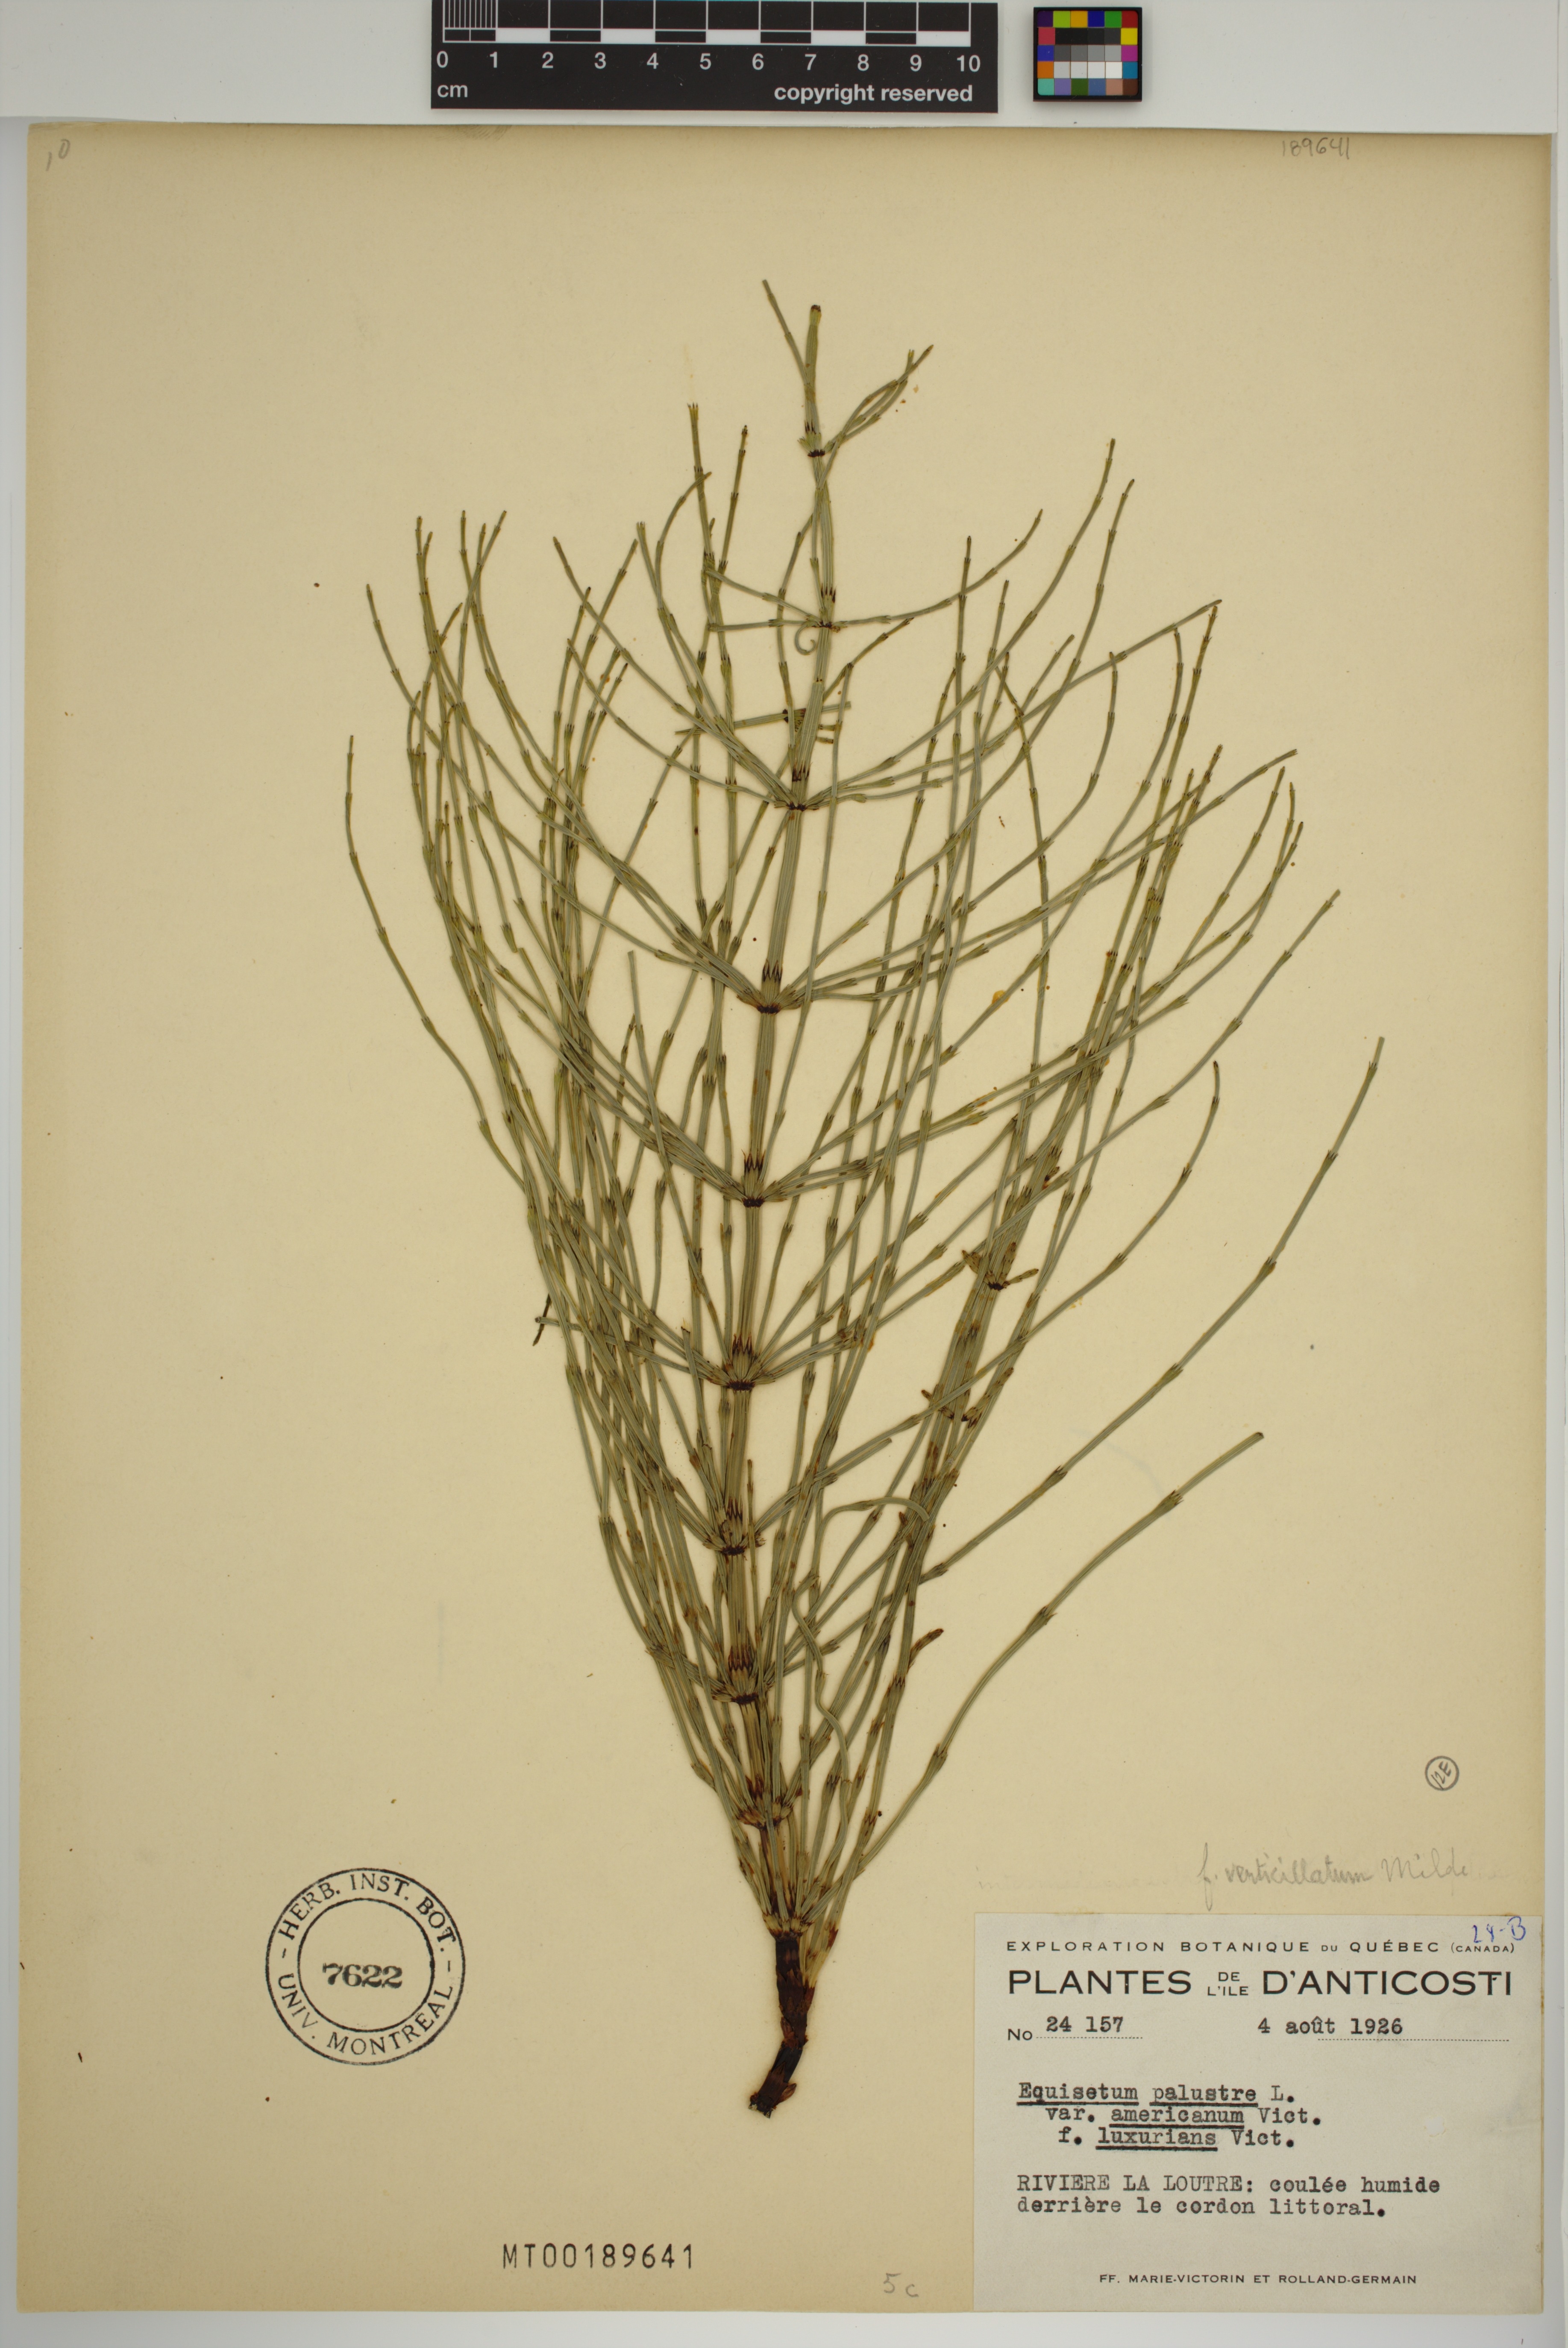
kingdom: Plantae
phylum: Tracheophyta
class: Polypodiopsida
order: Equisetales
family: Equisetaceae
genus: Equisetum
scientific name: Equisetum palustre
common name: Marsh horsetail
